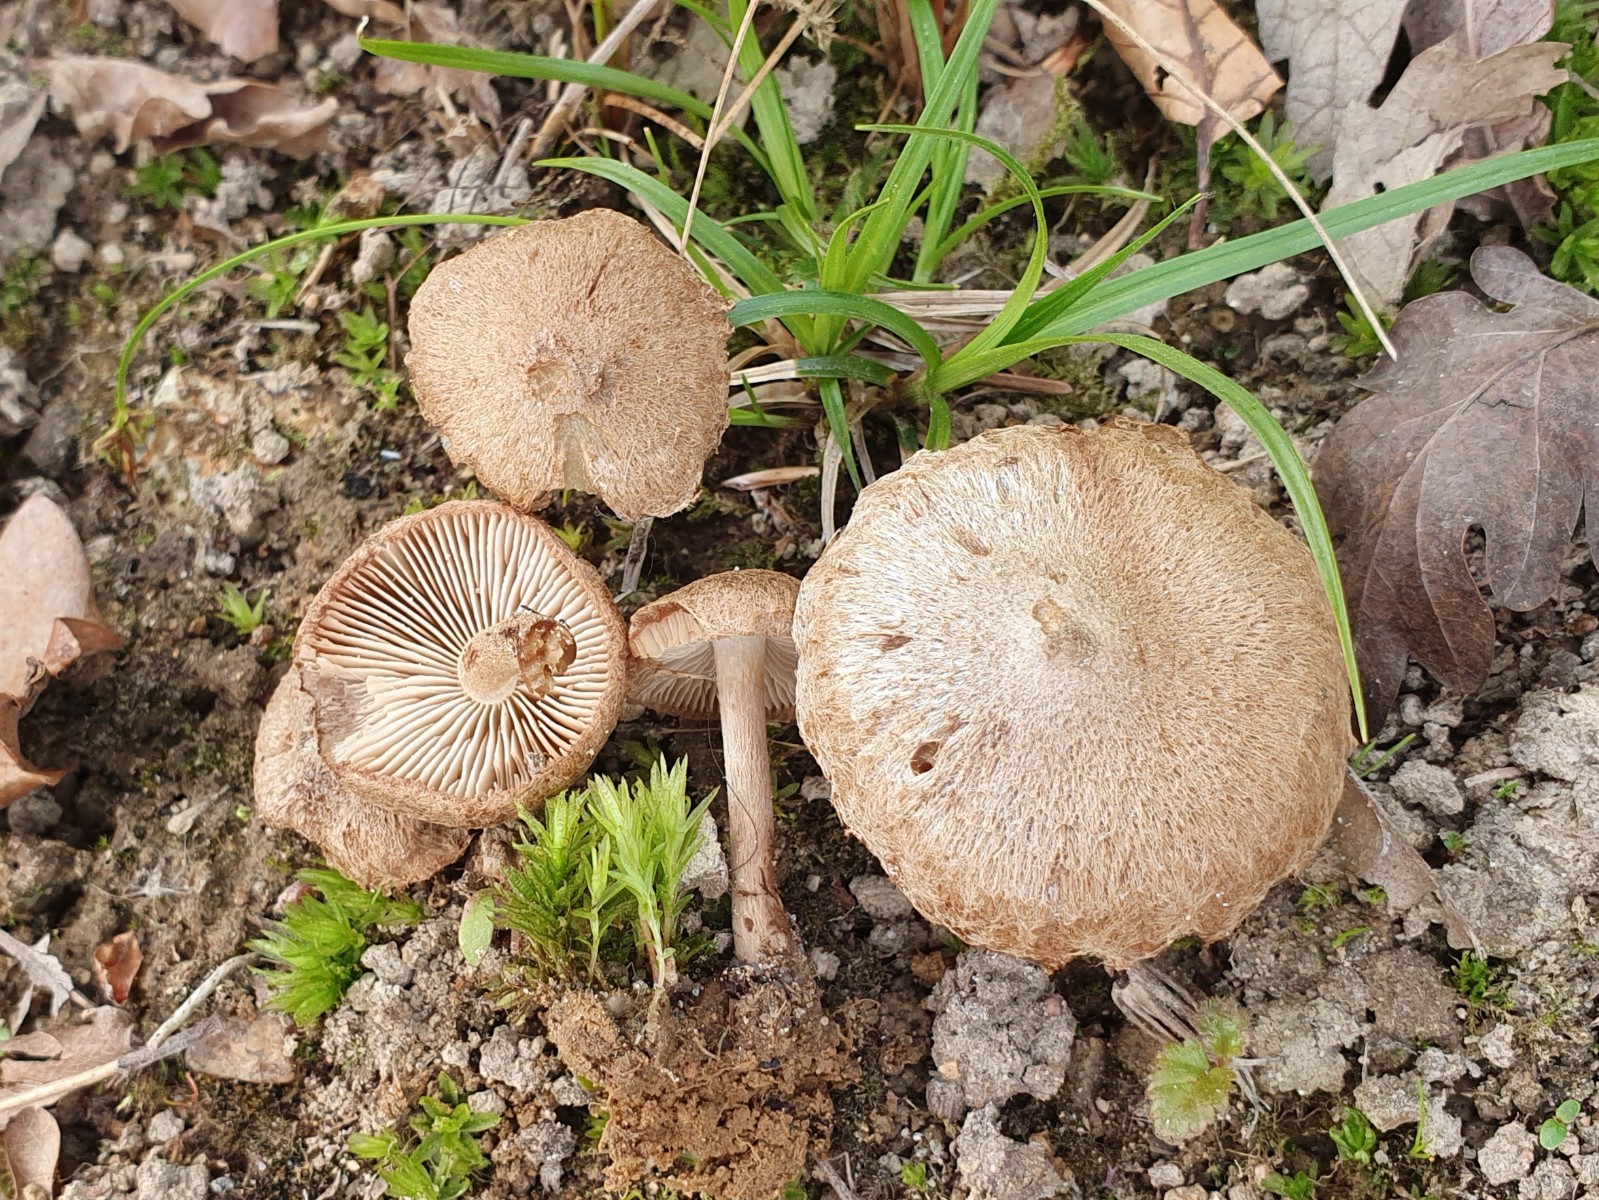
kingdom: Fungi
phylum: Basidiomycota
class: Agaricomycetes
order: Agaricales
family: Inocybaceae
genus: Inocybe
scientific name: Inocybe
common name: trævlhat
